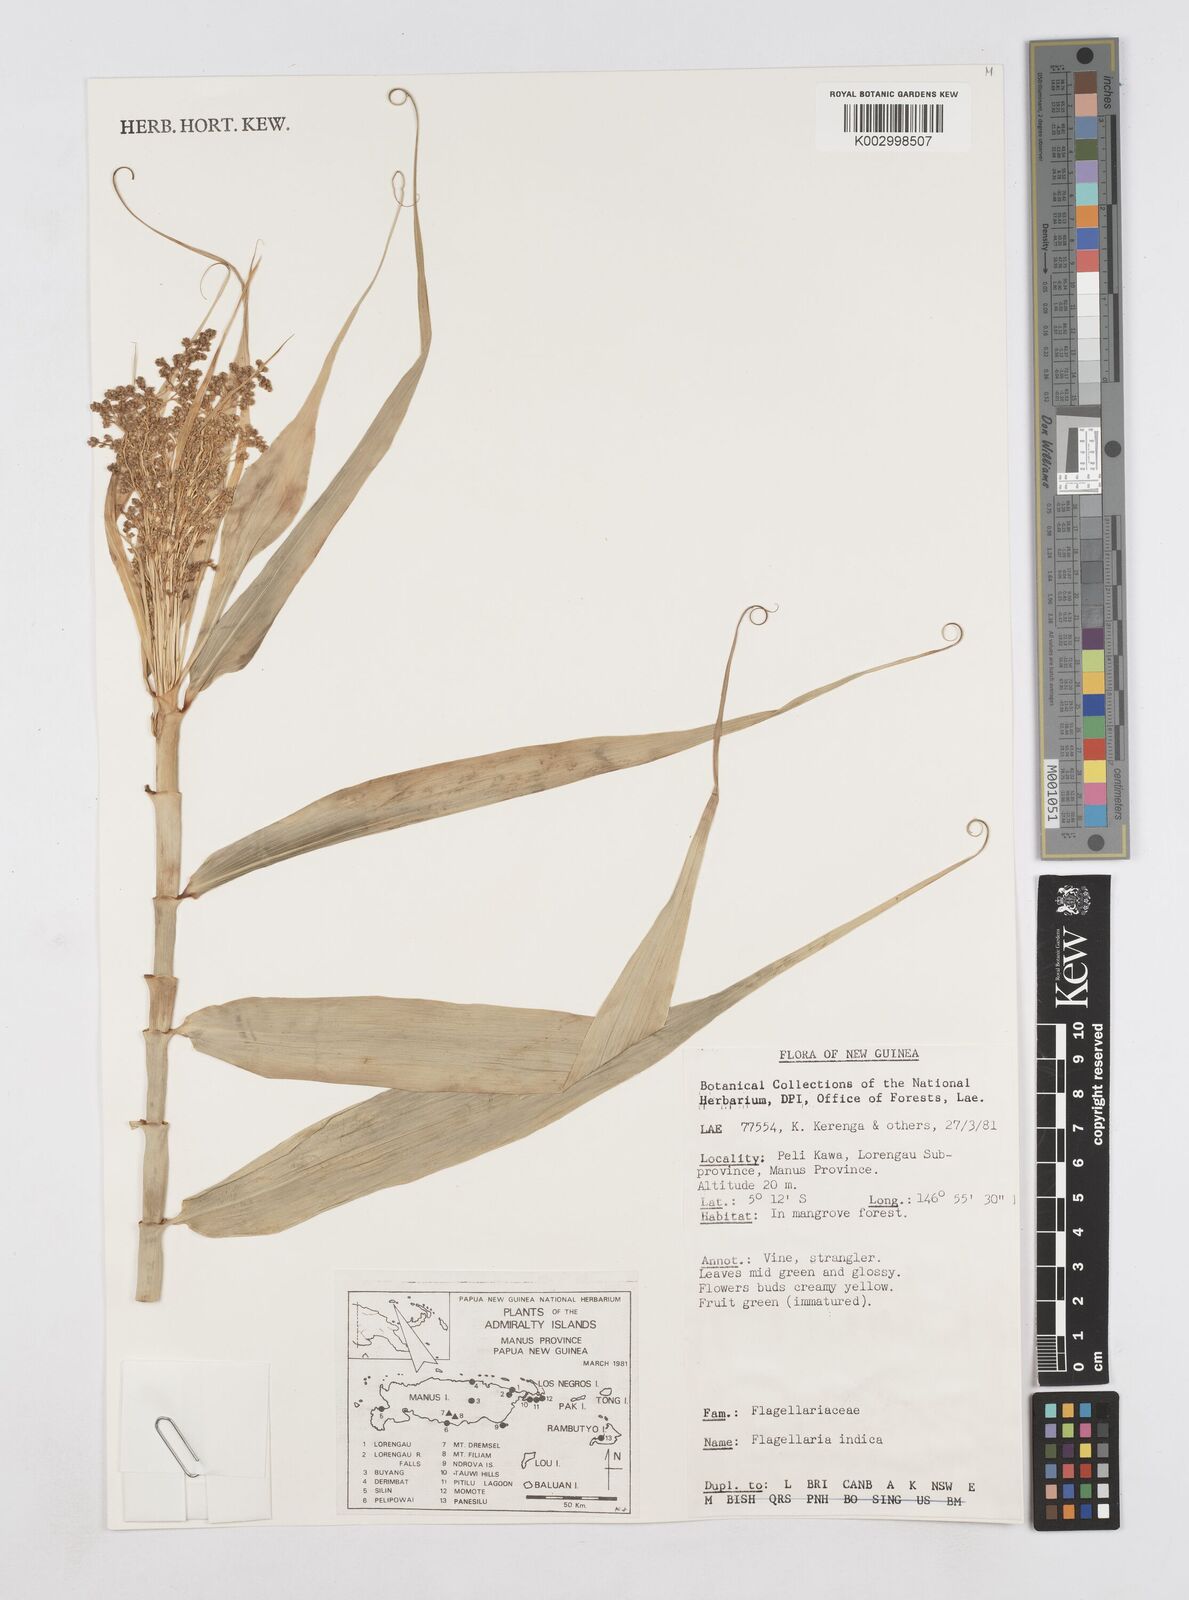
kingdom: Plantae
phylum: Tracheophyta
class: Liliopsida
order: Poales
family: Flagellariaceae
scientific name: Flagellariaceae
